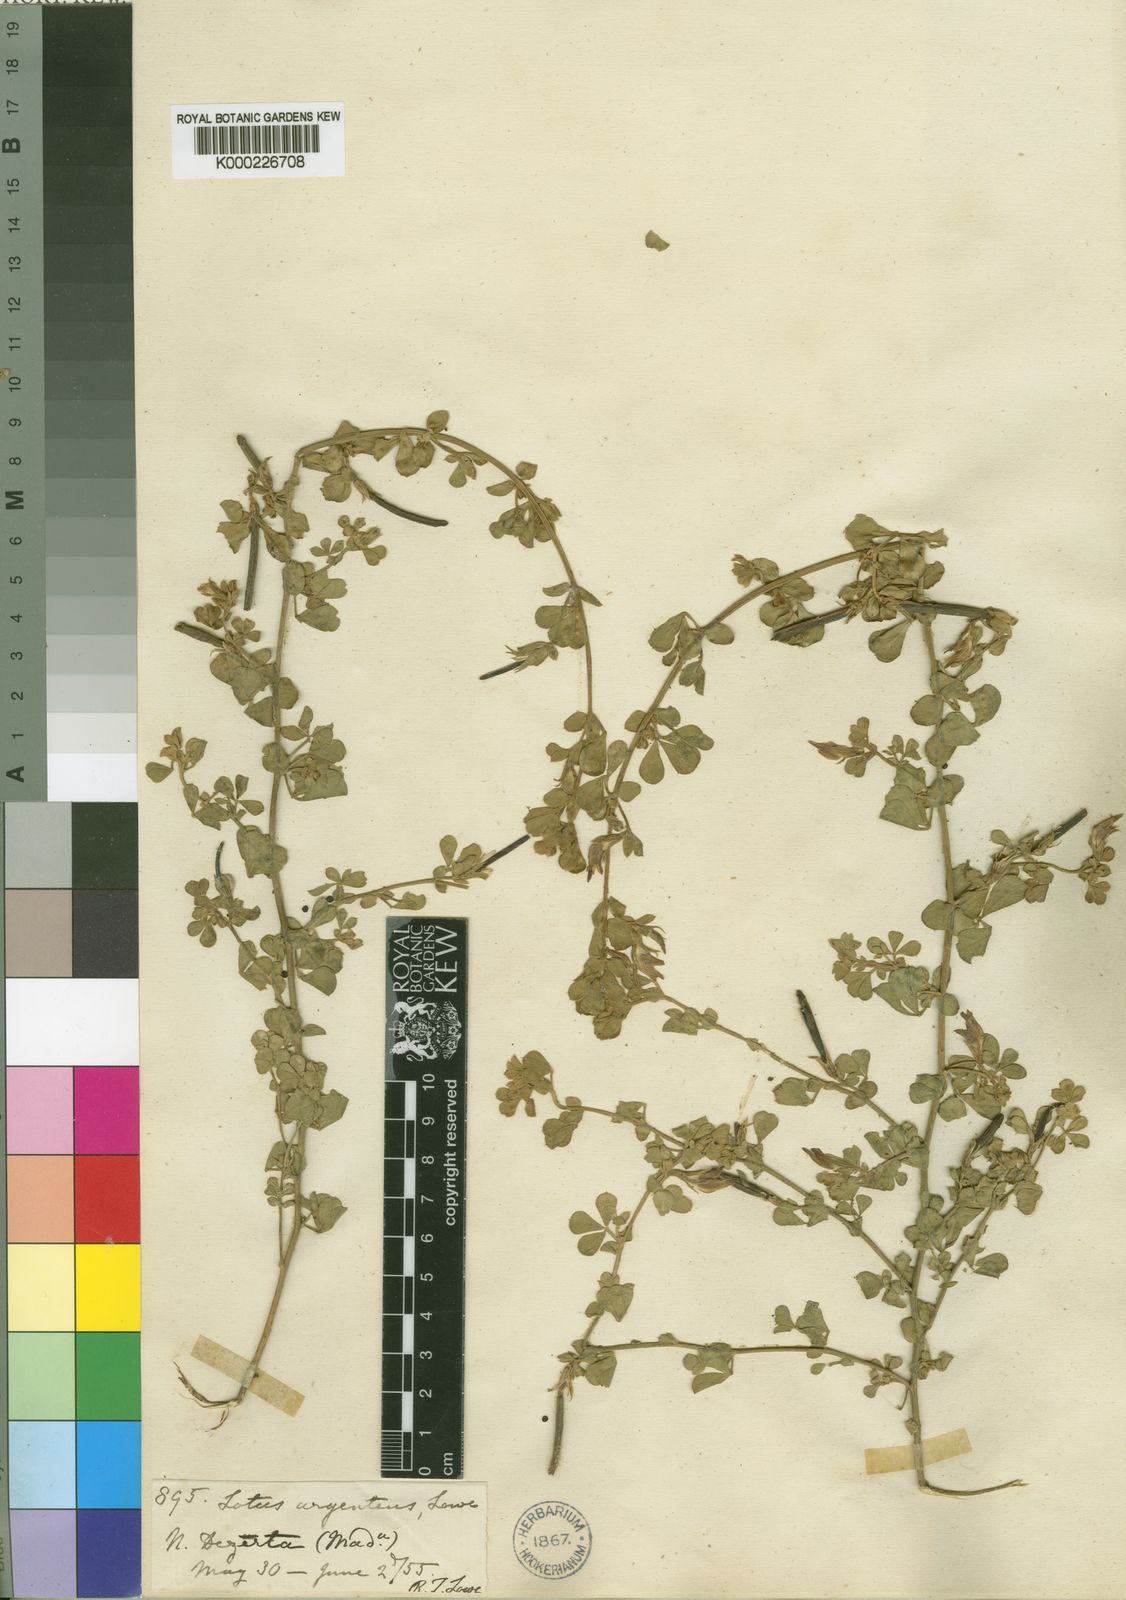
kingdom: Plantae
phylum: Tracheophyta
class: Magnoliopsida
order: Fabales
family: Fabaceae
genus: Lotus
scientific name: Lotus
